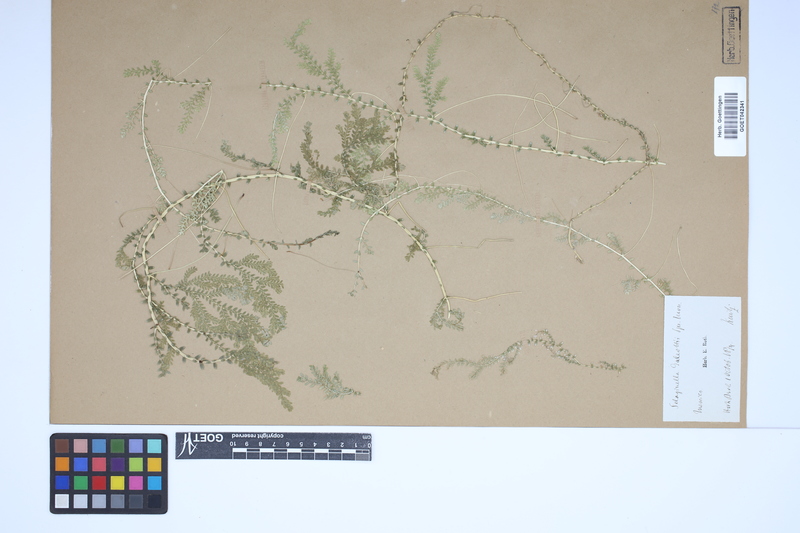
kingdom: Plantae
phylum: Tracheophyta
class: Lycopodiopsida
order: Selaginellales
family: Selaginellaceae
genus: Selaginella
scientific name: Selaginella stellata
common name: Starry spikemoss
